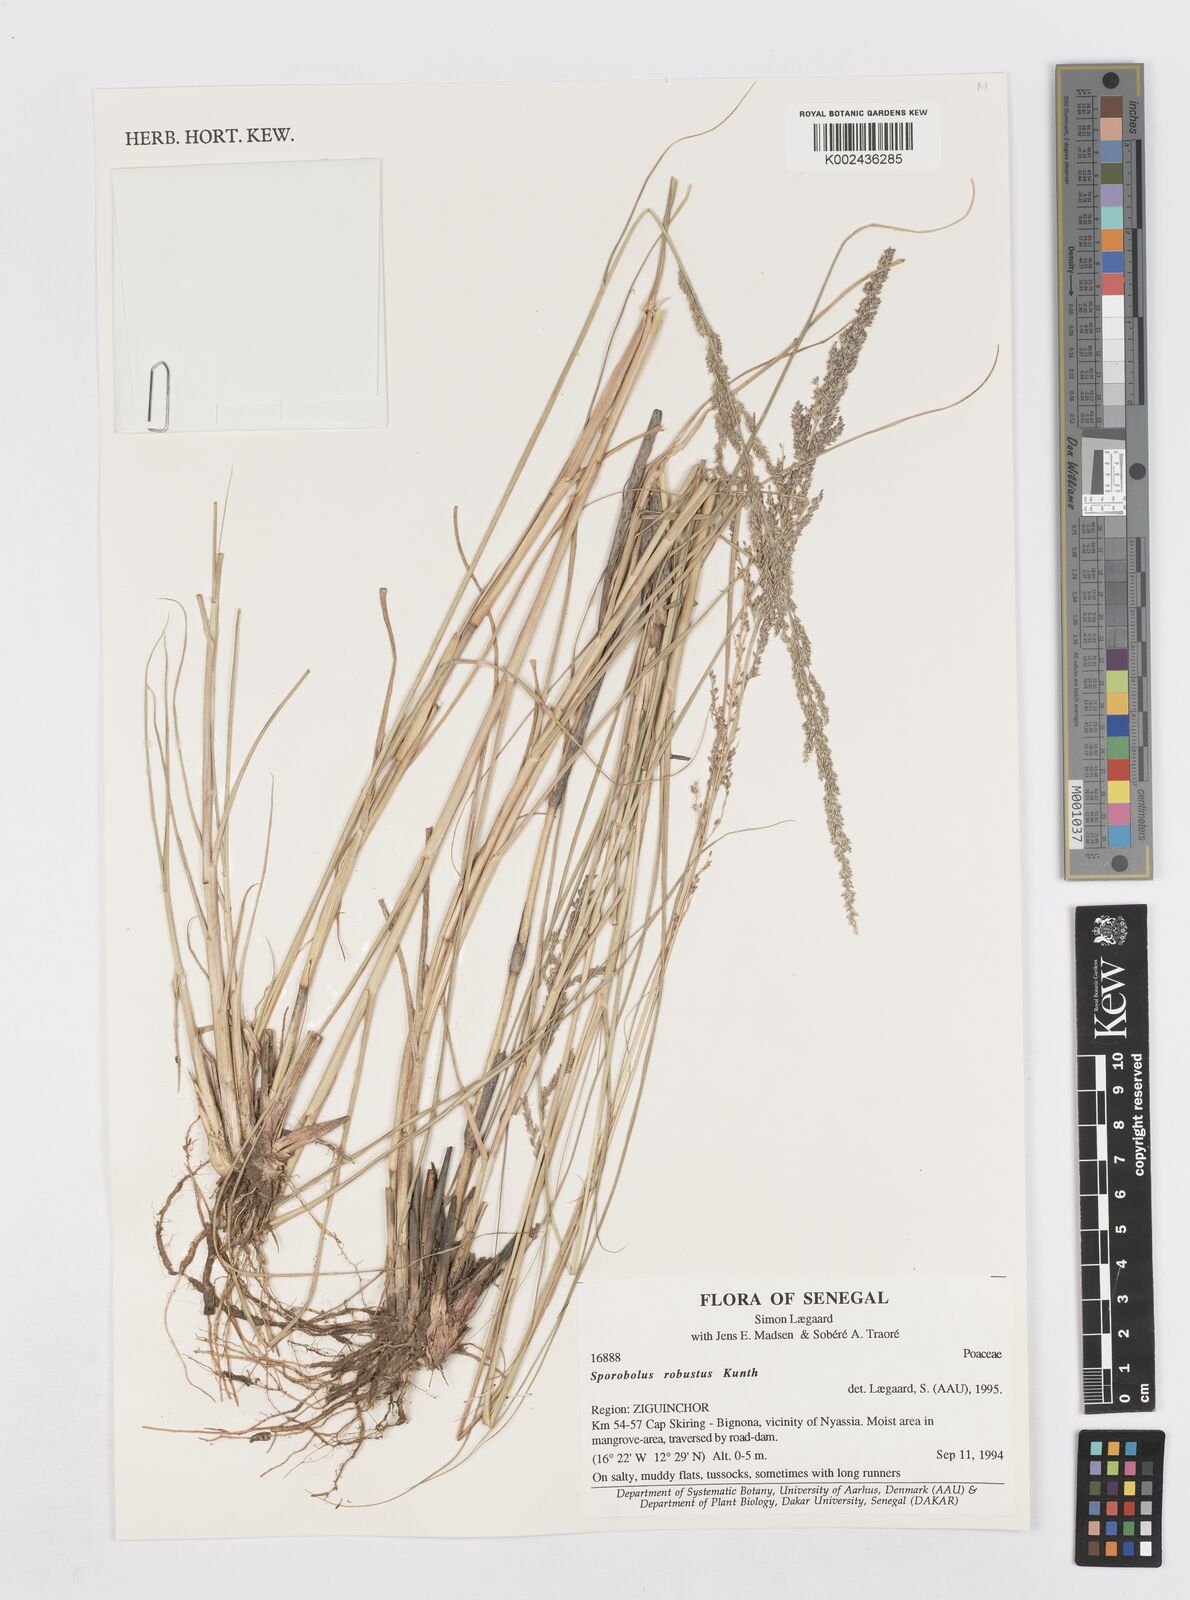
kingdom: Plantae
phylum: Tracheophyta
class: Liliopsida
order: Poales
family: Poaceae
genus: Sporobolus
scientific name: Sporobolus robustus
